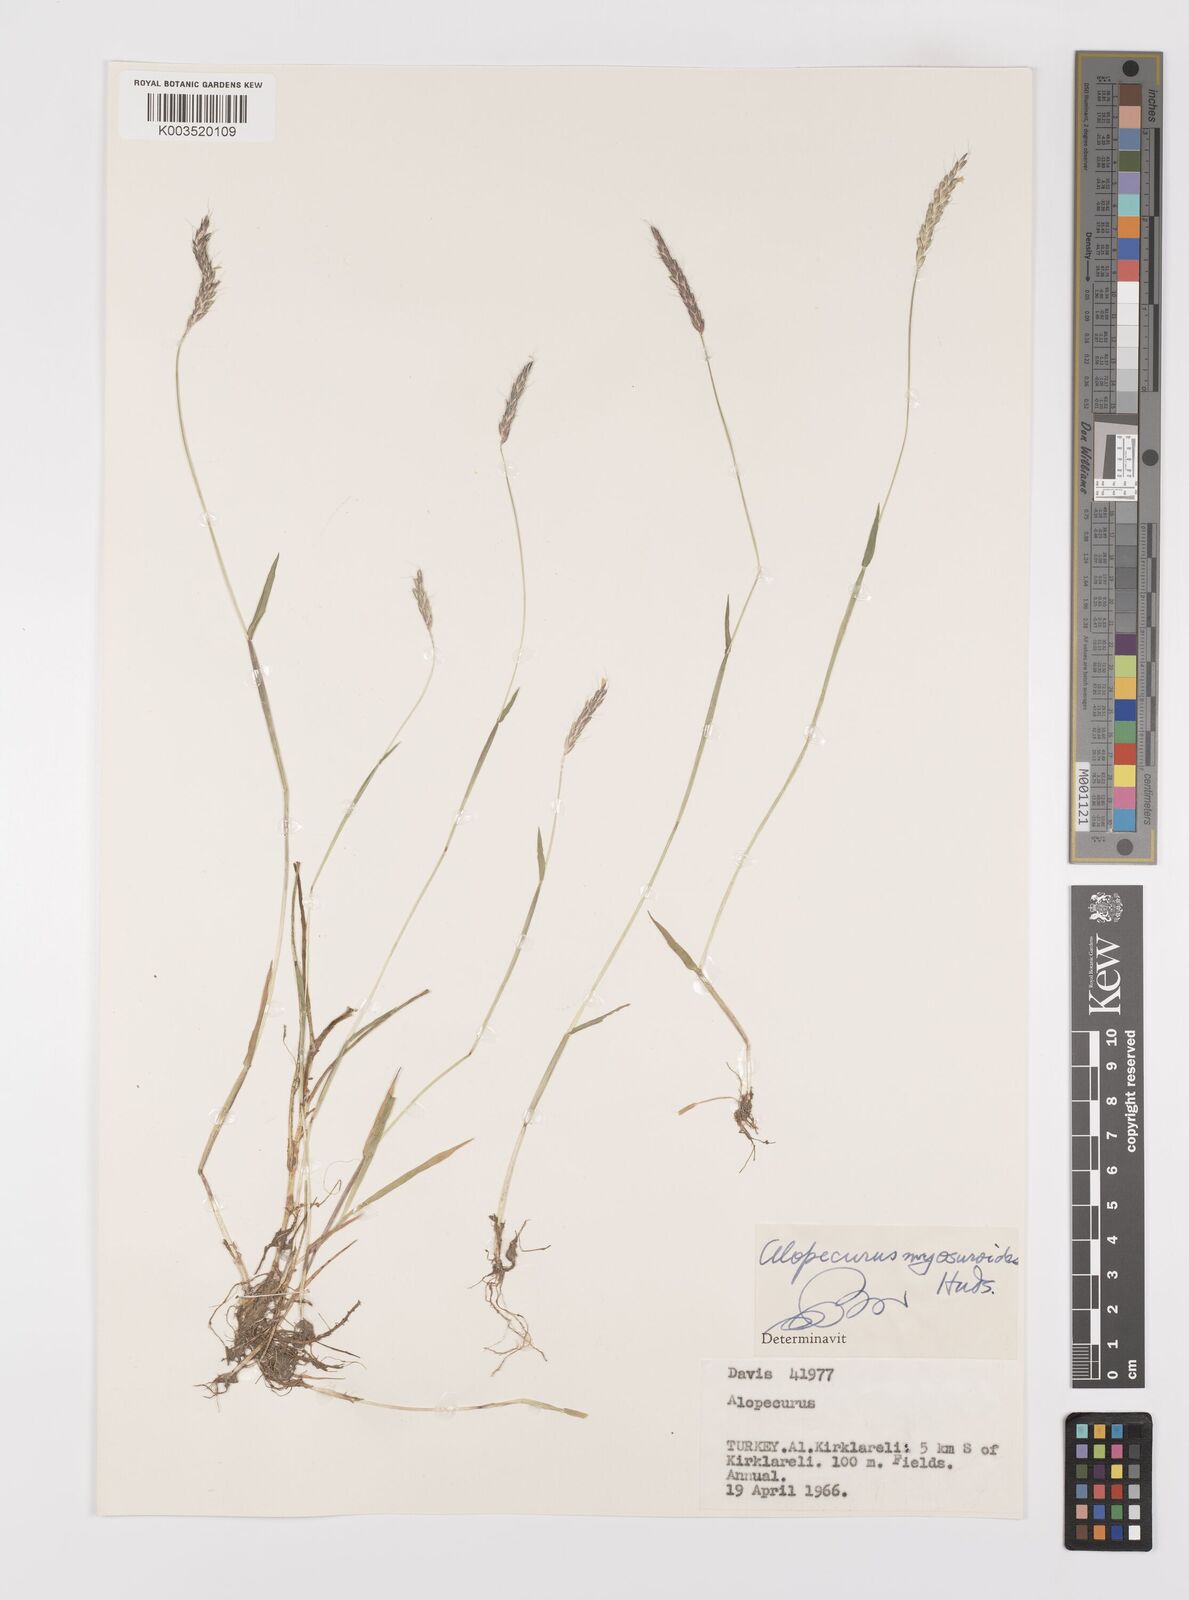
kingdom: Plantae
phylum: Tracheophyta
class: Liliopsida
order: Poales
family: Poaceae
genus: Alopecurus
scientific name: Alopecurus myosuroides
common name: Black-grass
